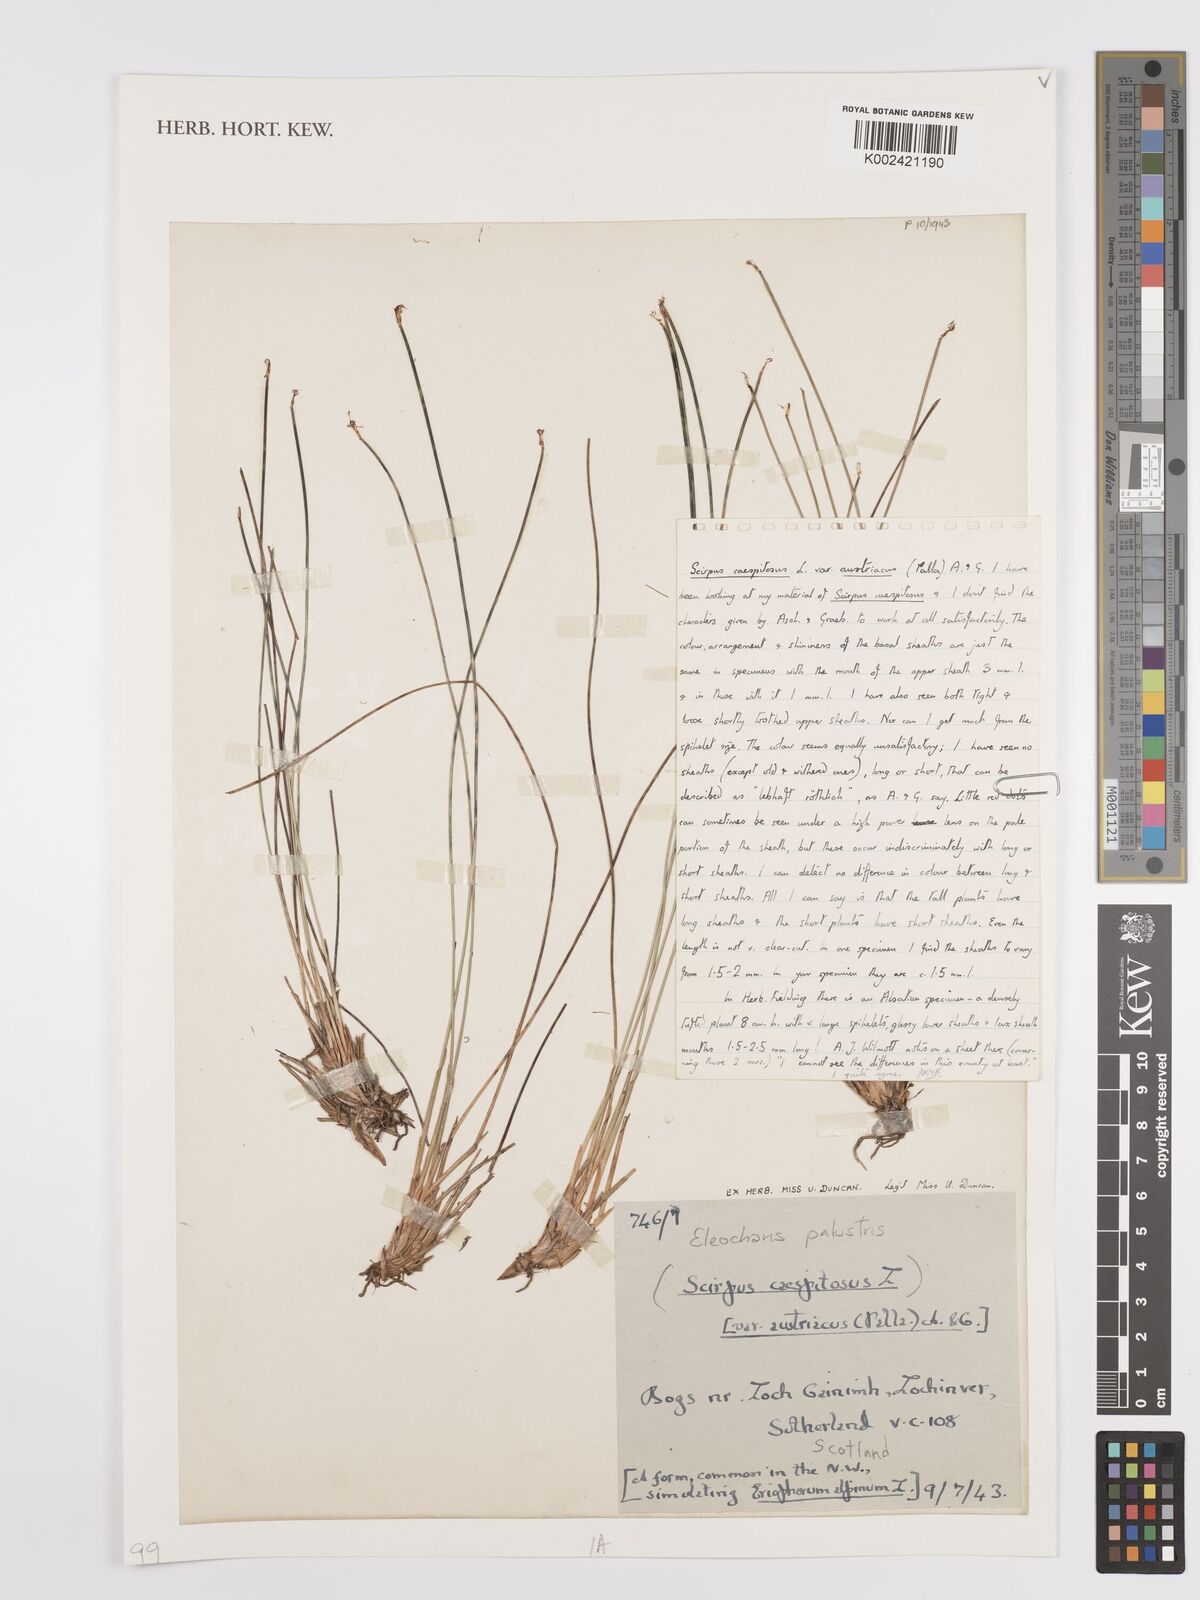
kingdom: Plantae
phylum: Tracheophyta
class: Liliopsida
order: Poales
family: Cyperaceae
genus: Eleocharis
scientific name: Eleocharis palustris
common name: Common spike-rush
